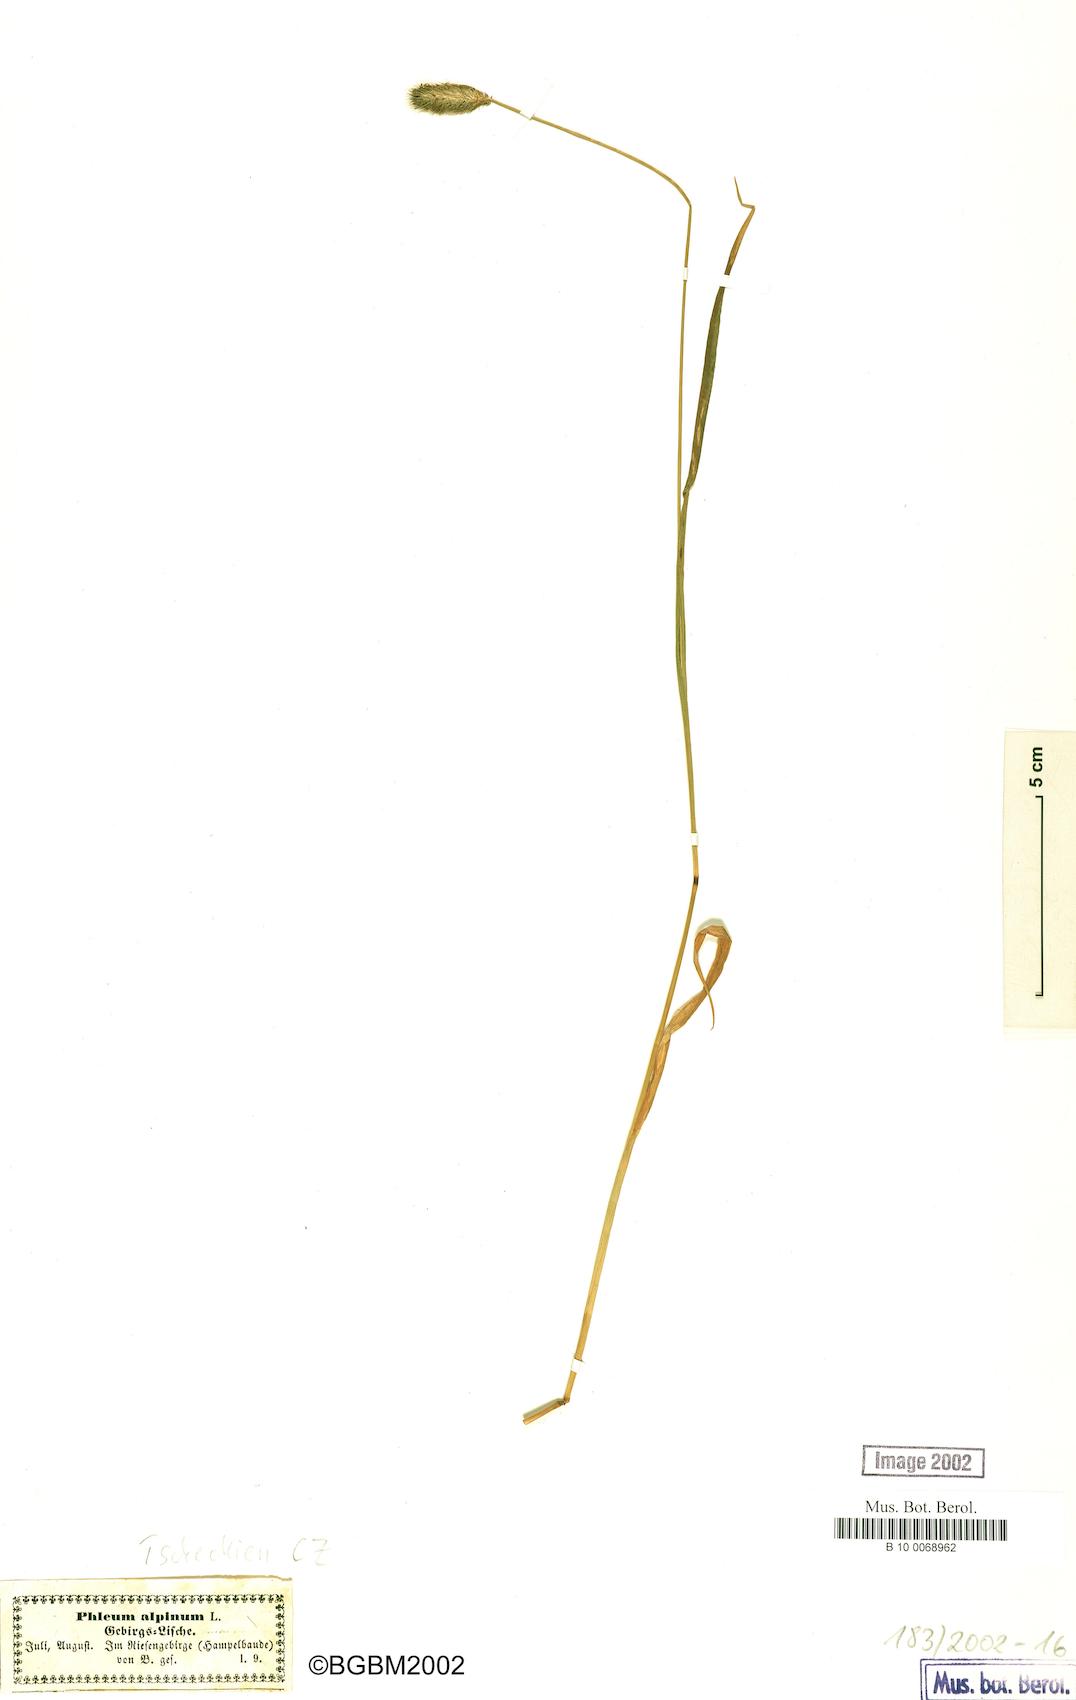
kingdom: Plantae
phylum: Tracheophyta
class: Liliopsida
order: Poales
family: Poaceae
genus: Phleum
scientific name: Phleum alpinum
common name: Alpine cat's-tail
